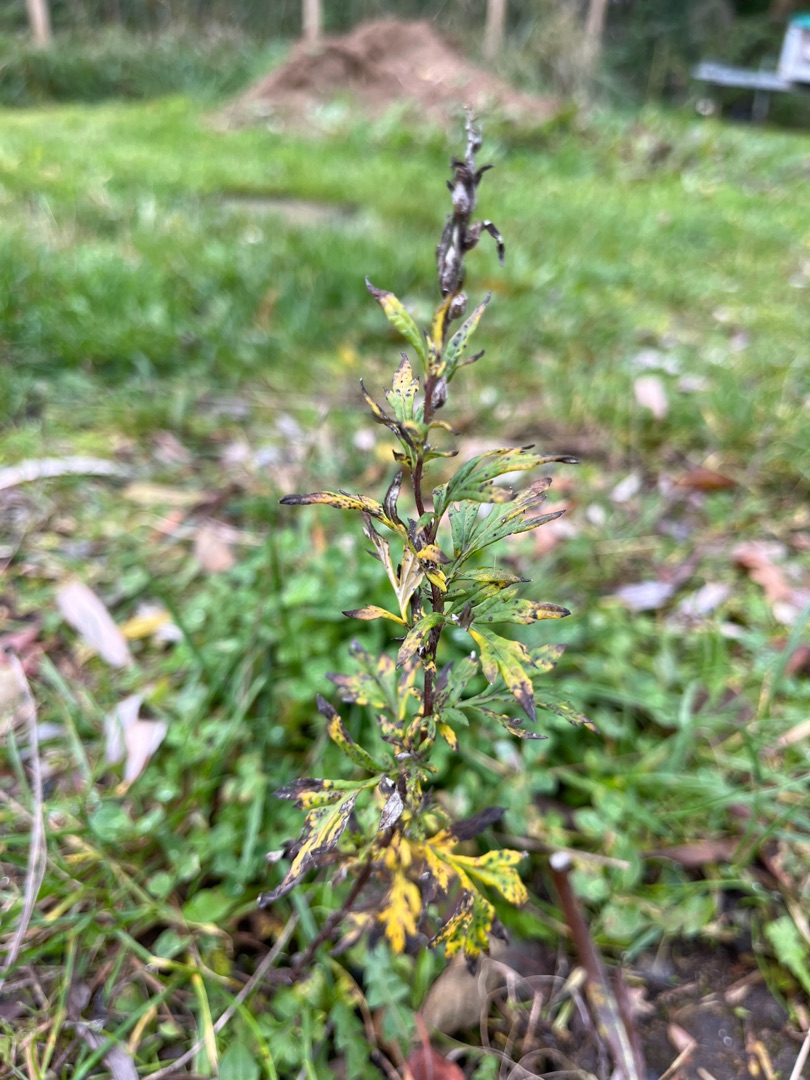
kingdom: Plantae
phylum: Tracheophyta
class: Magnoliopsida
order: Asterales
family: Asteraceae
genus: Artemisia
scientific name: Artemisia vulgaris
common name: Grå-bynke
